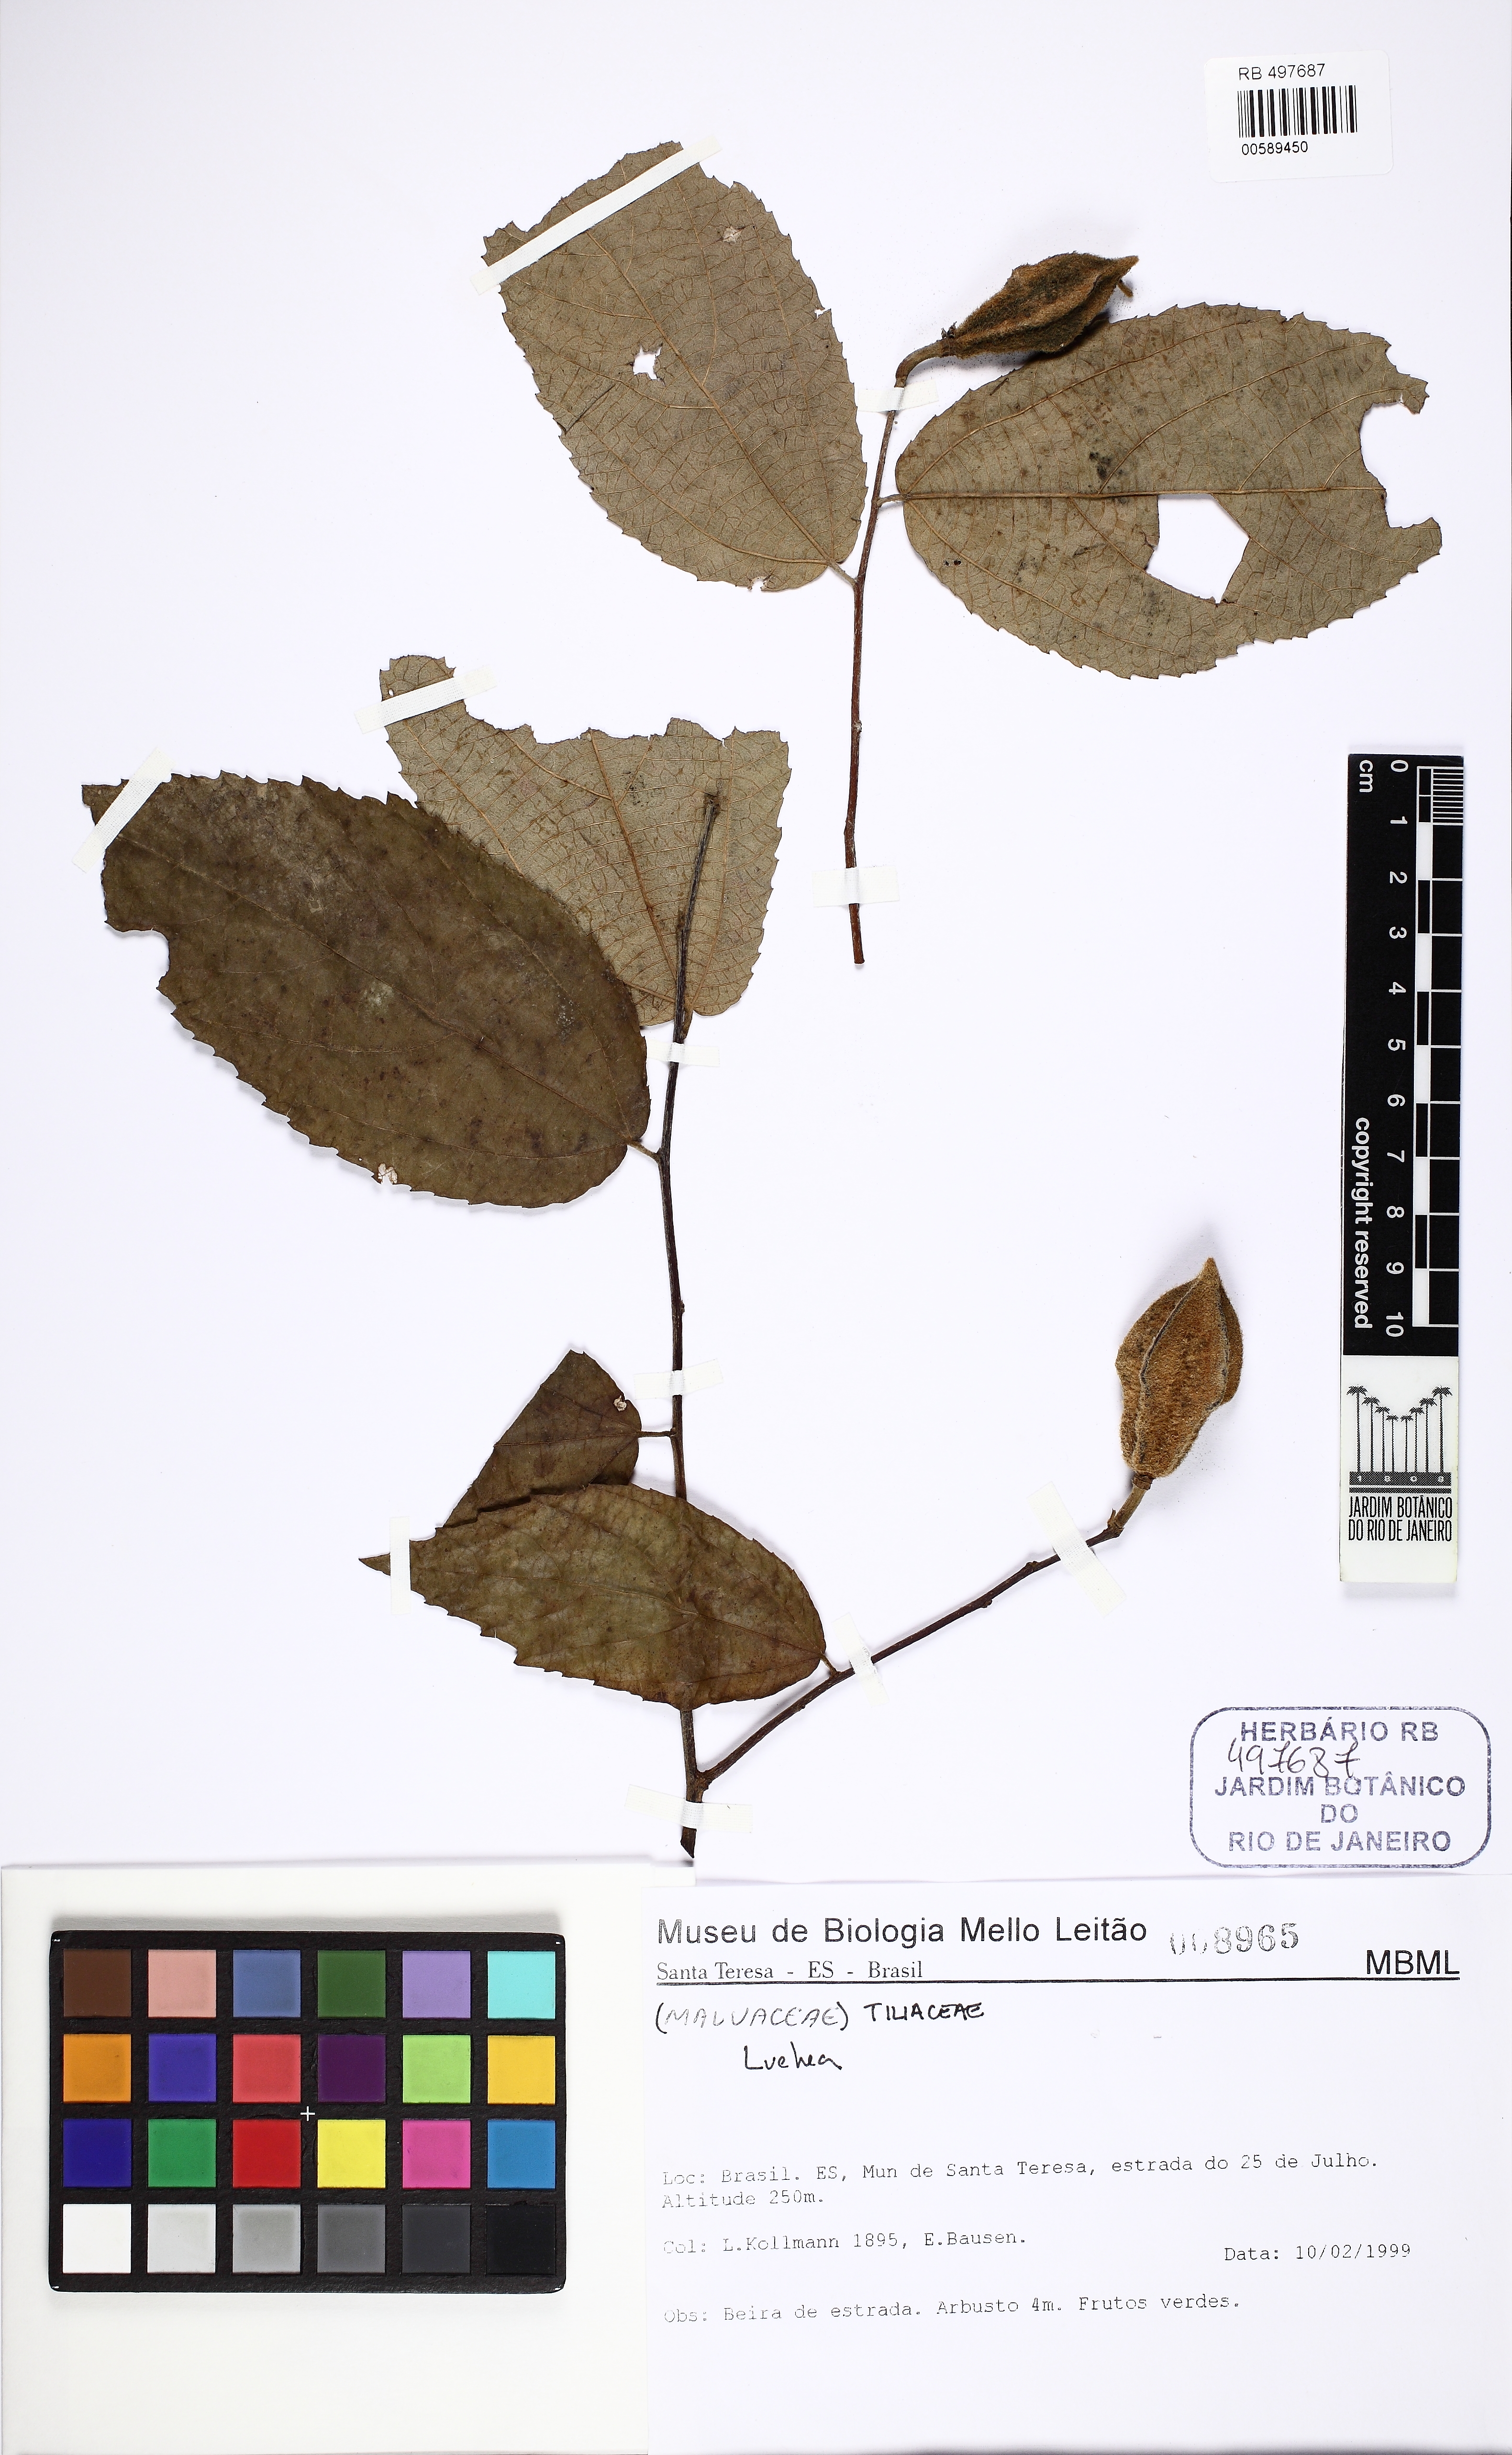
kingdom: Plantae
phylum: Tracheophyta
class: Magnoliopsida
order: Malvales
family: Malvaceae
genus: Luehea
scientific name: Luehea
